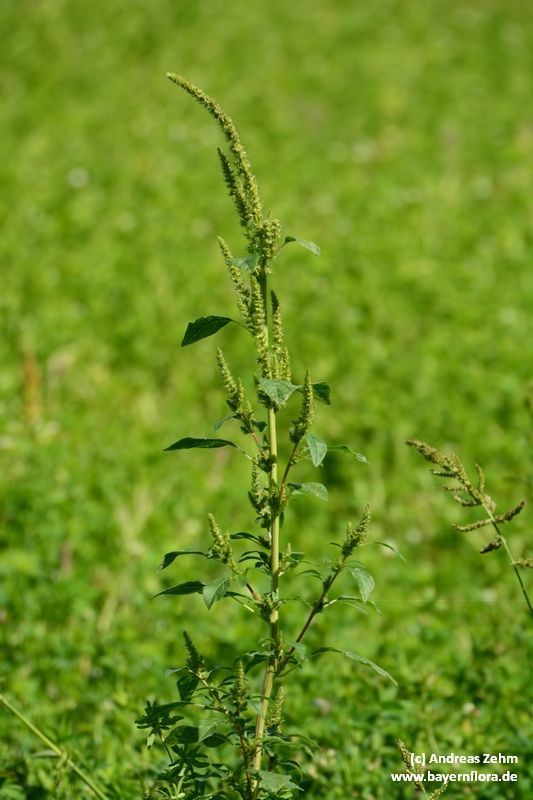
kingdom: Plantae
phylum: Tracheophyta
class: Magnoliopsida
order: Caryophyllales
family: Amaranthaceae
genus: Amaranthus
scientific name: Amaranthus powellii
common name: Powell's amaranth
